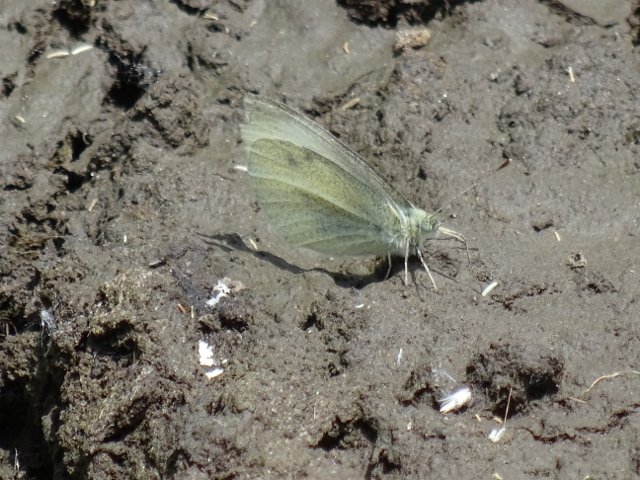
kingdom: Animalia
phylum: Arthropoda
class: Insecta
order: Lepidoptera
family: Pieridae
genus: Pieris
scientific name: Pieris rapae
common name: Cabbage White
